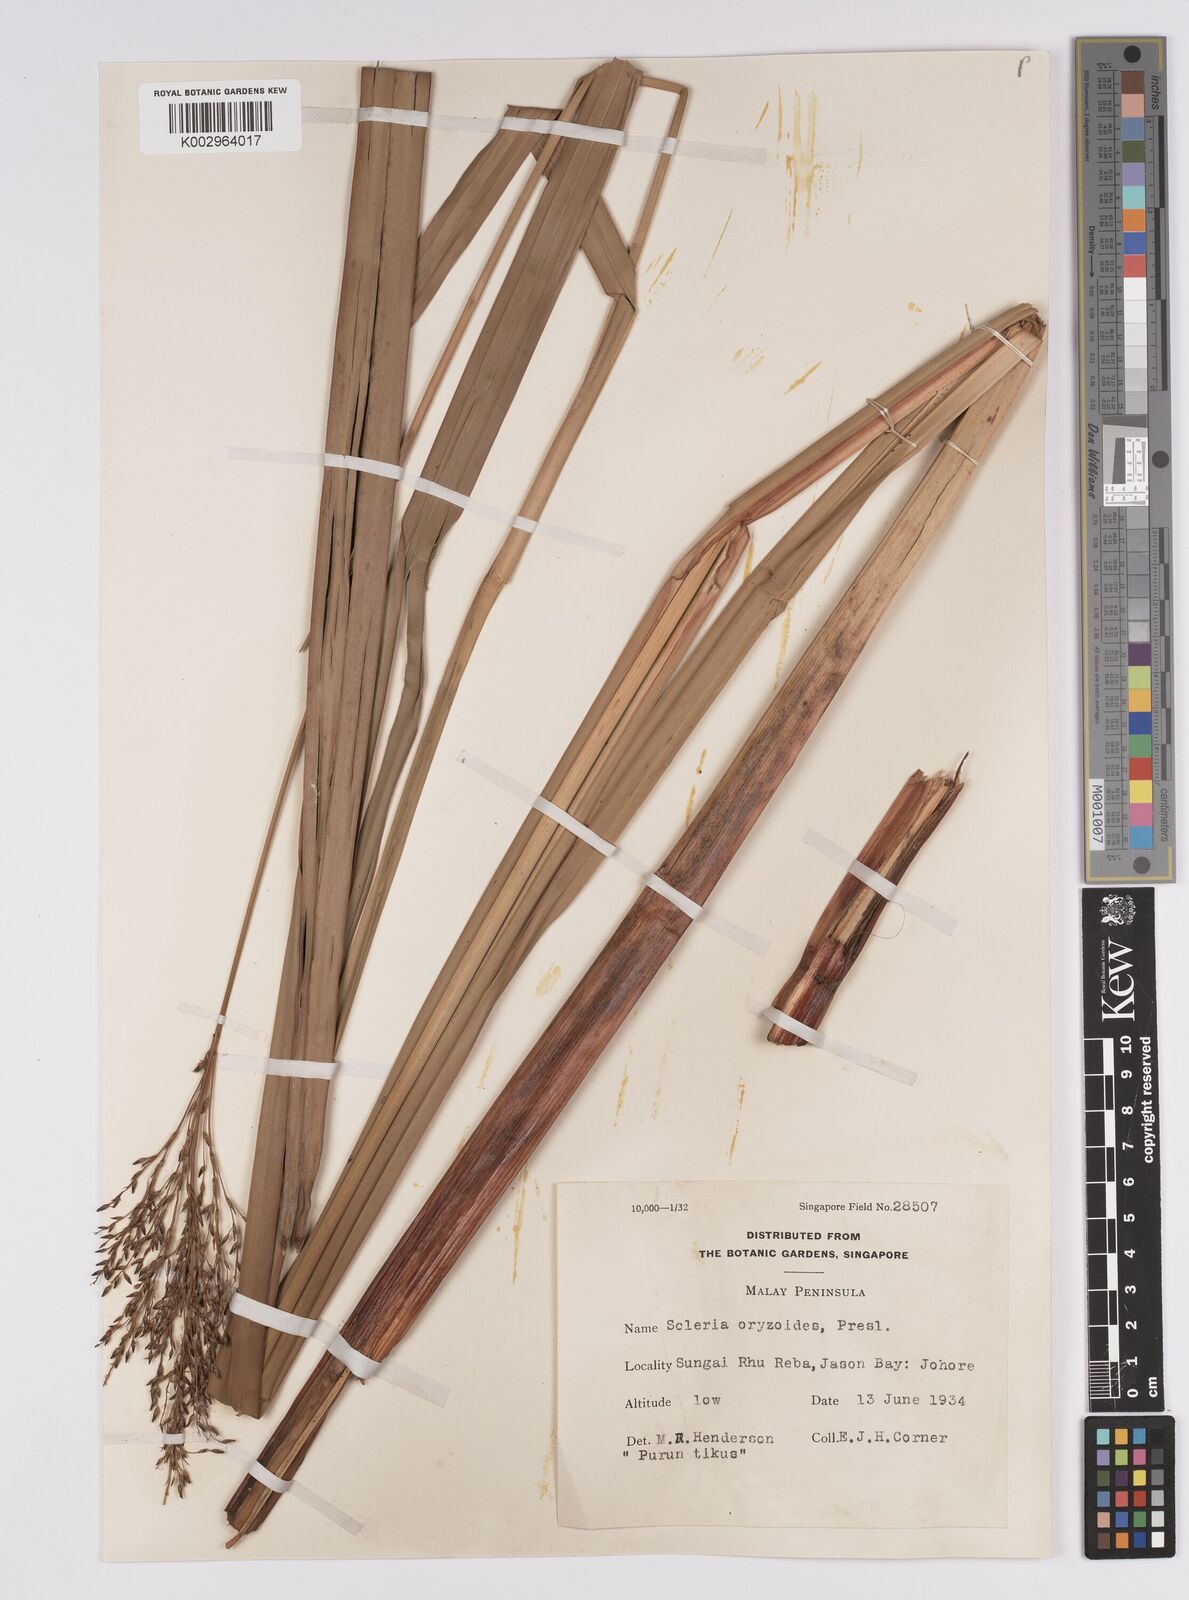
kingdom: Plantae
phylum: Tracheophyta
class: Liliopsida
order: Poales
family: Cyperaceae
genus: Scleria
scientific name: Scleria poiformis
